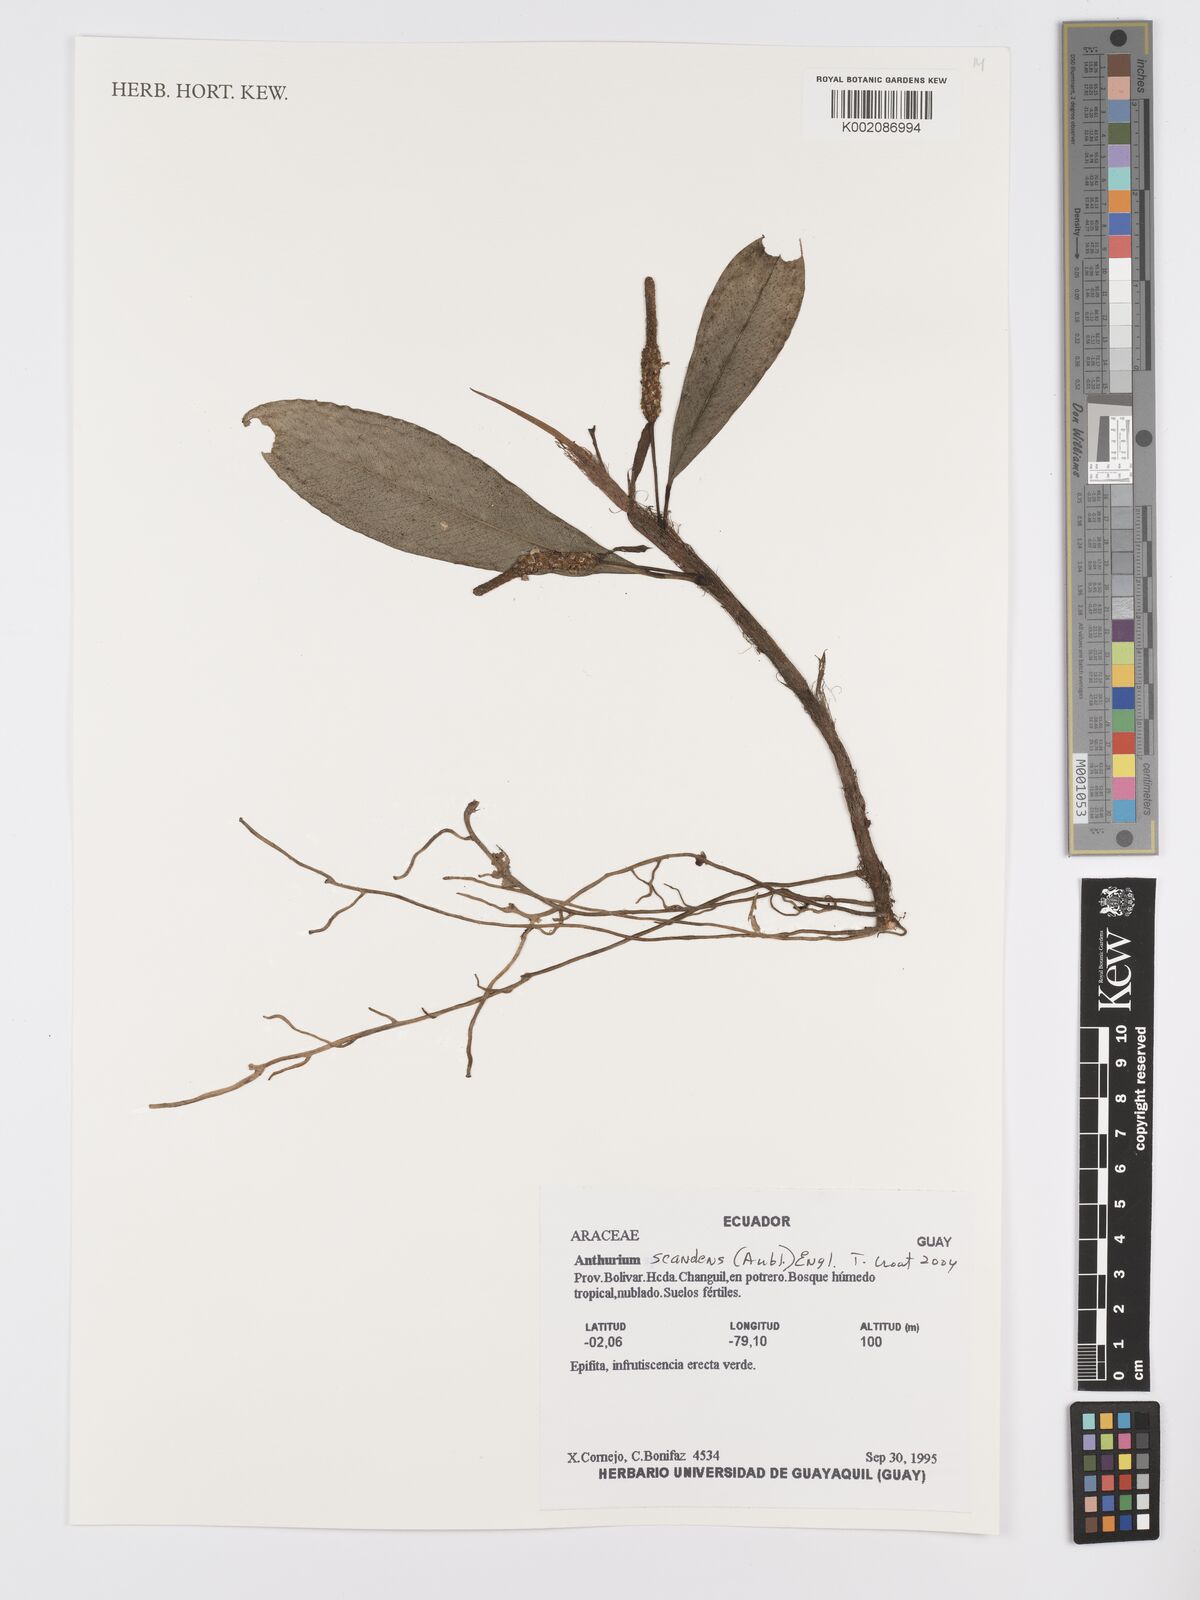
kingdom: Plantae
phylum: Tracheophyta
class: Liliopsida
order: Alismatales
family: Araceae
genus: Anthurium
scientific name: Anthurium scandens
